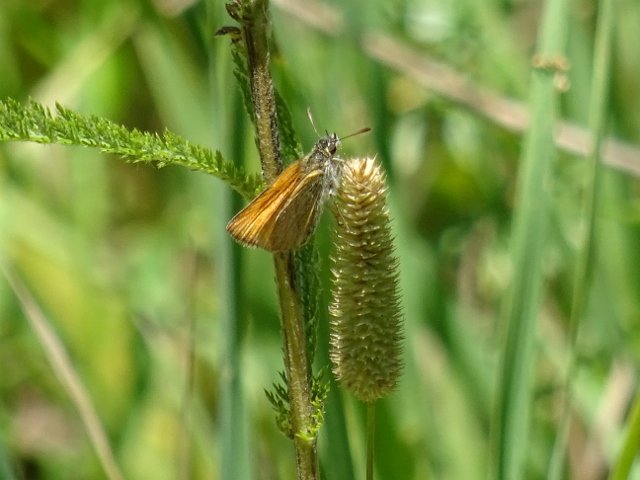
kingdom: Animalia
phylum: Arthropoda
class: Insecta
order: Lepidoptera
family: Hesperiidae
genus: Thymelicus
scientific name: Thymelicus lineola
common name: European Skipper
